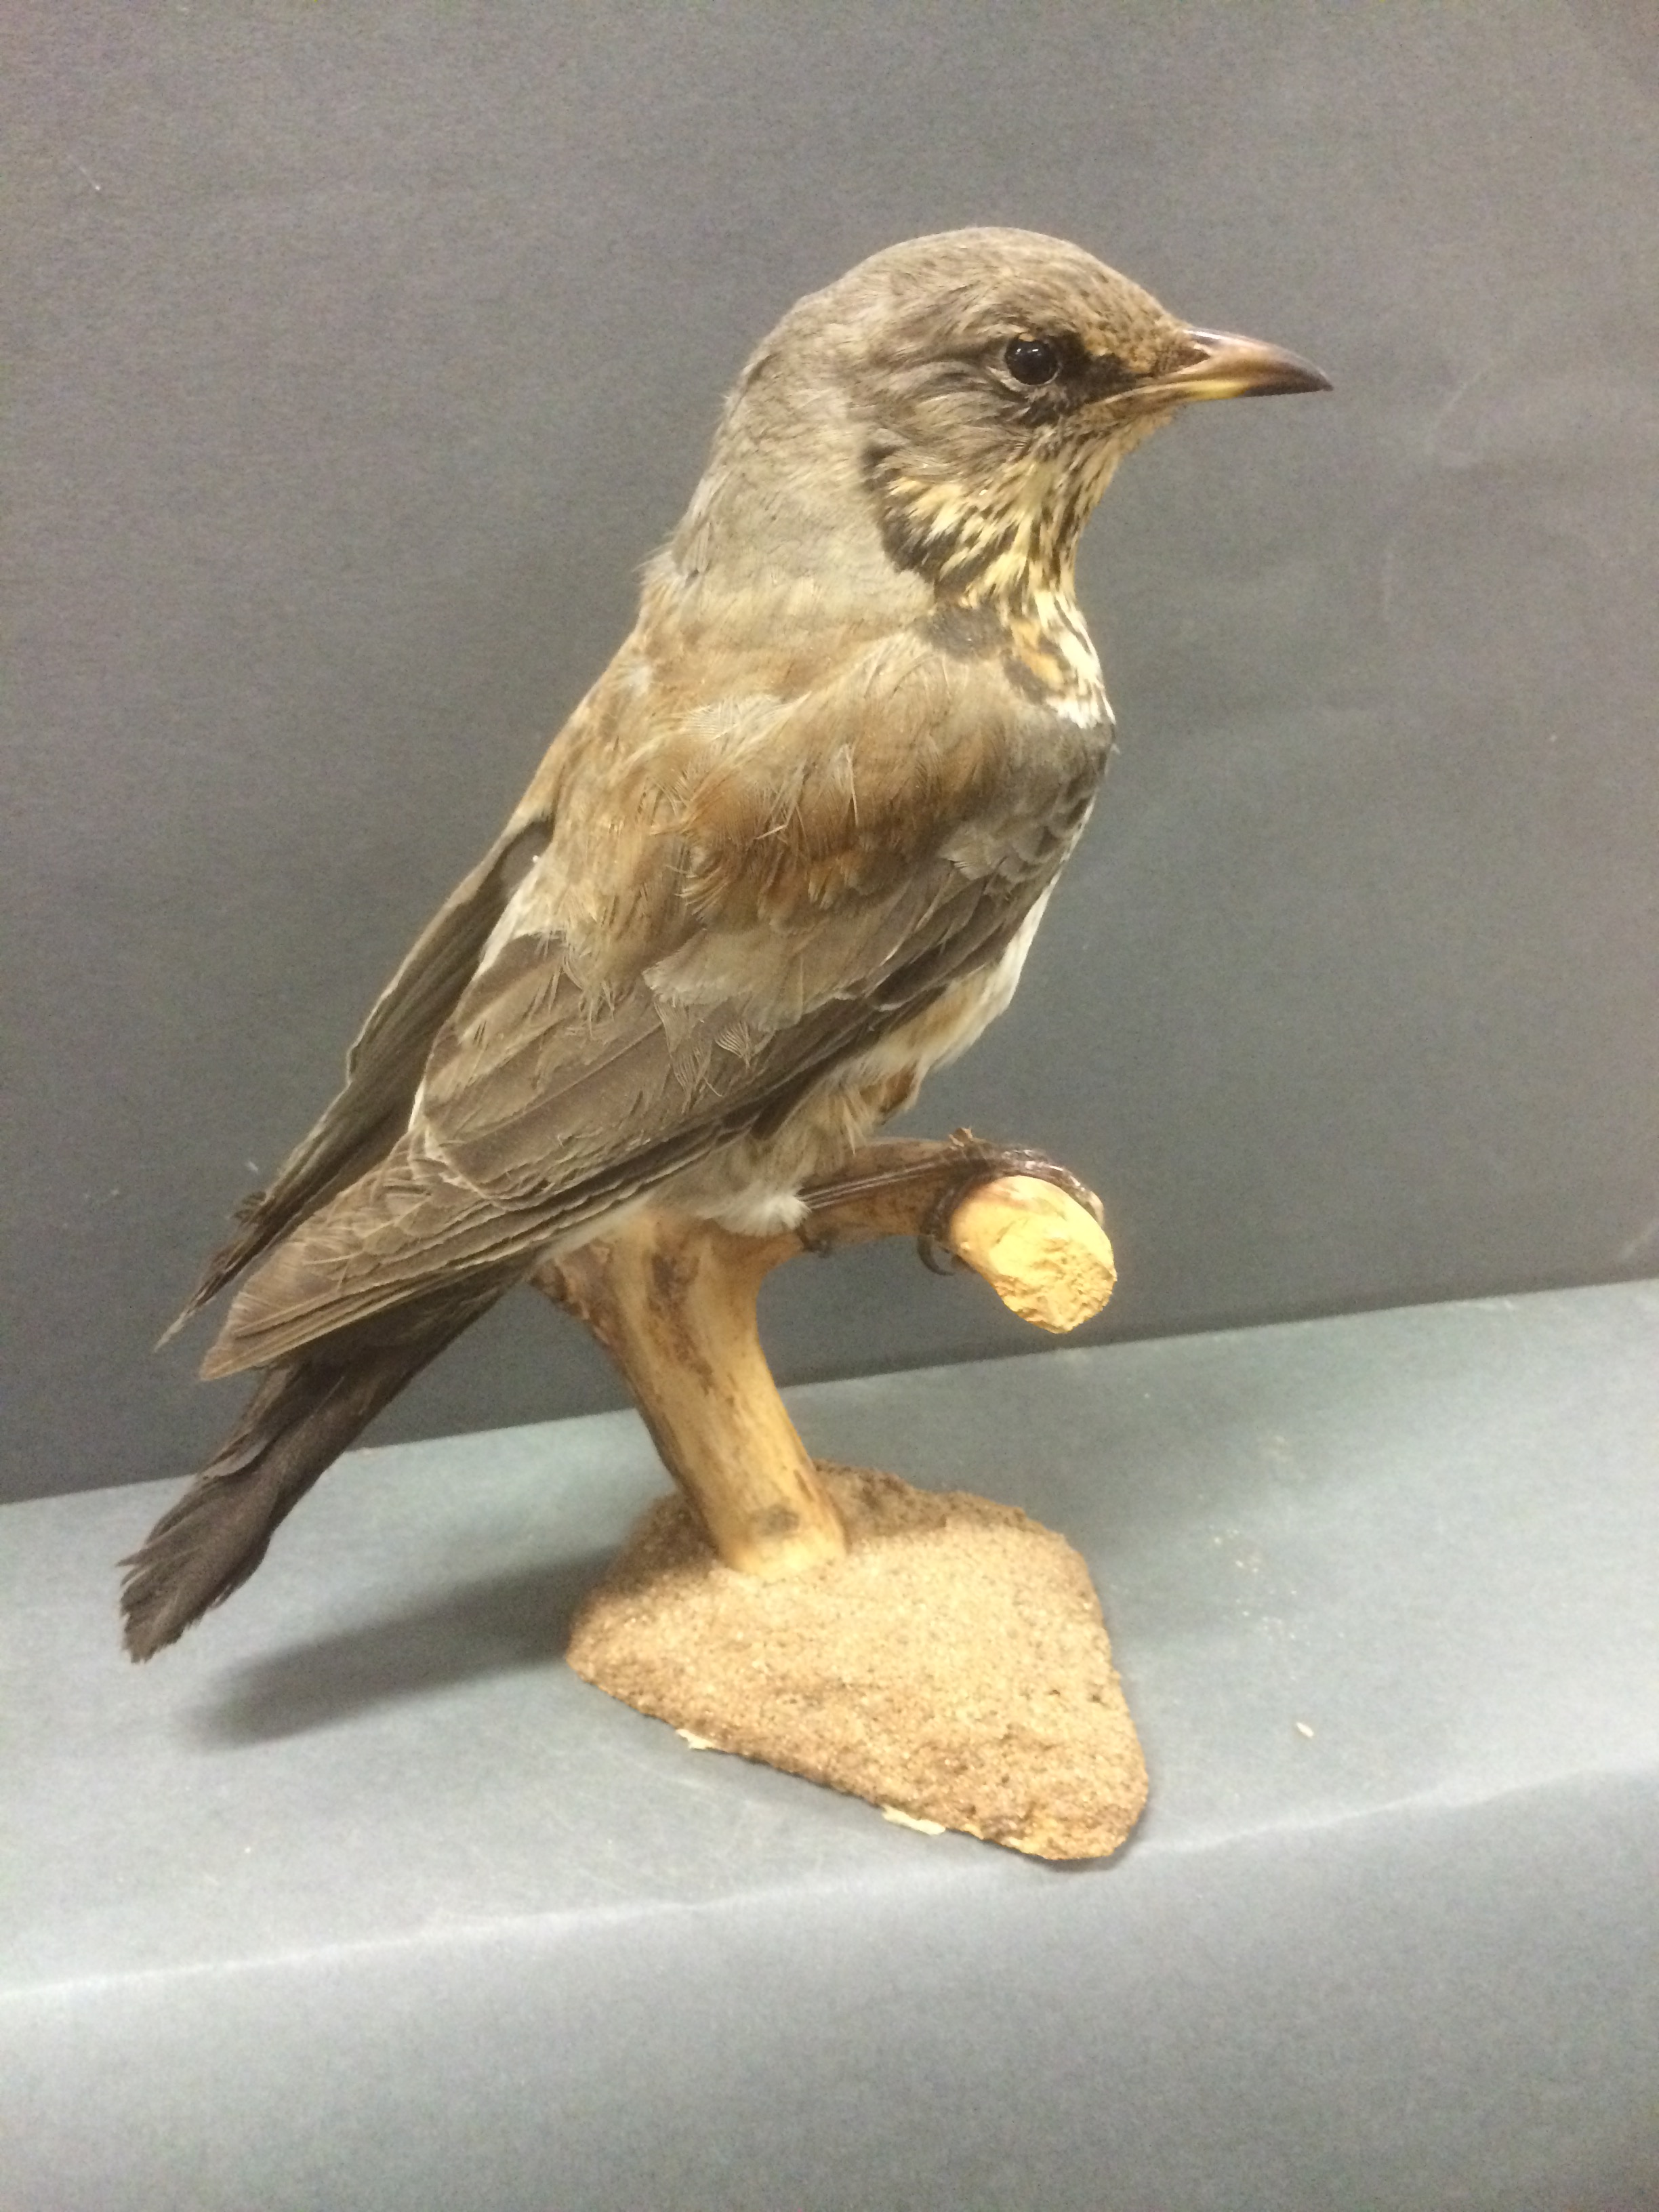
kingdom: Animalia
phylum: Chordata
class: Aves
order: Passeriformes
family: Turdidae
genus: Turdus
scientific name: Turdus pilaris
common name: Fieldfare
